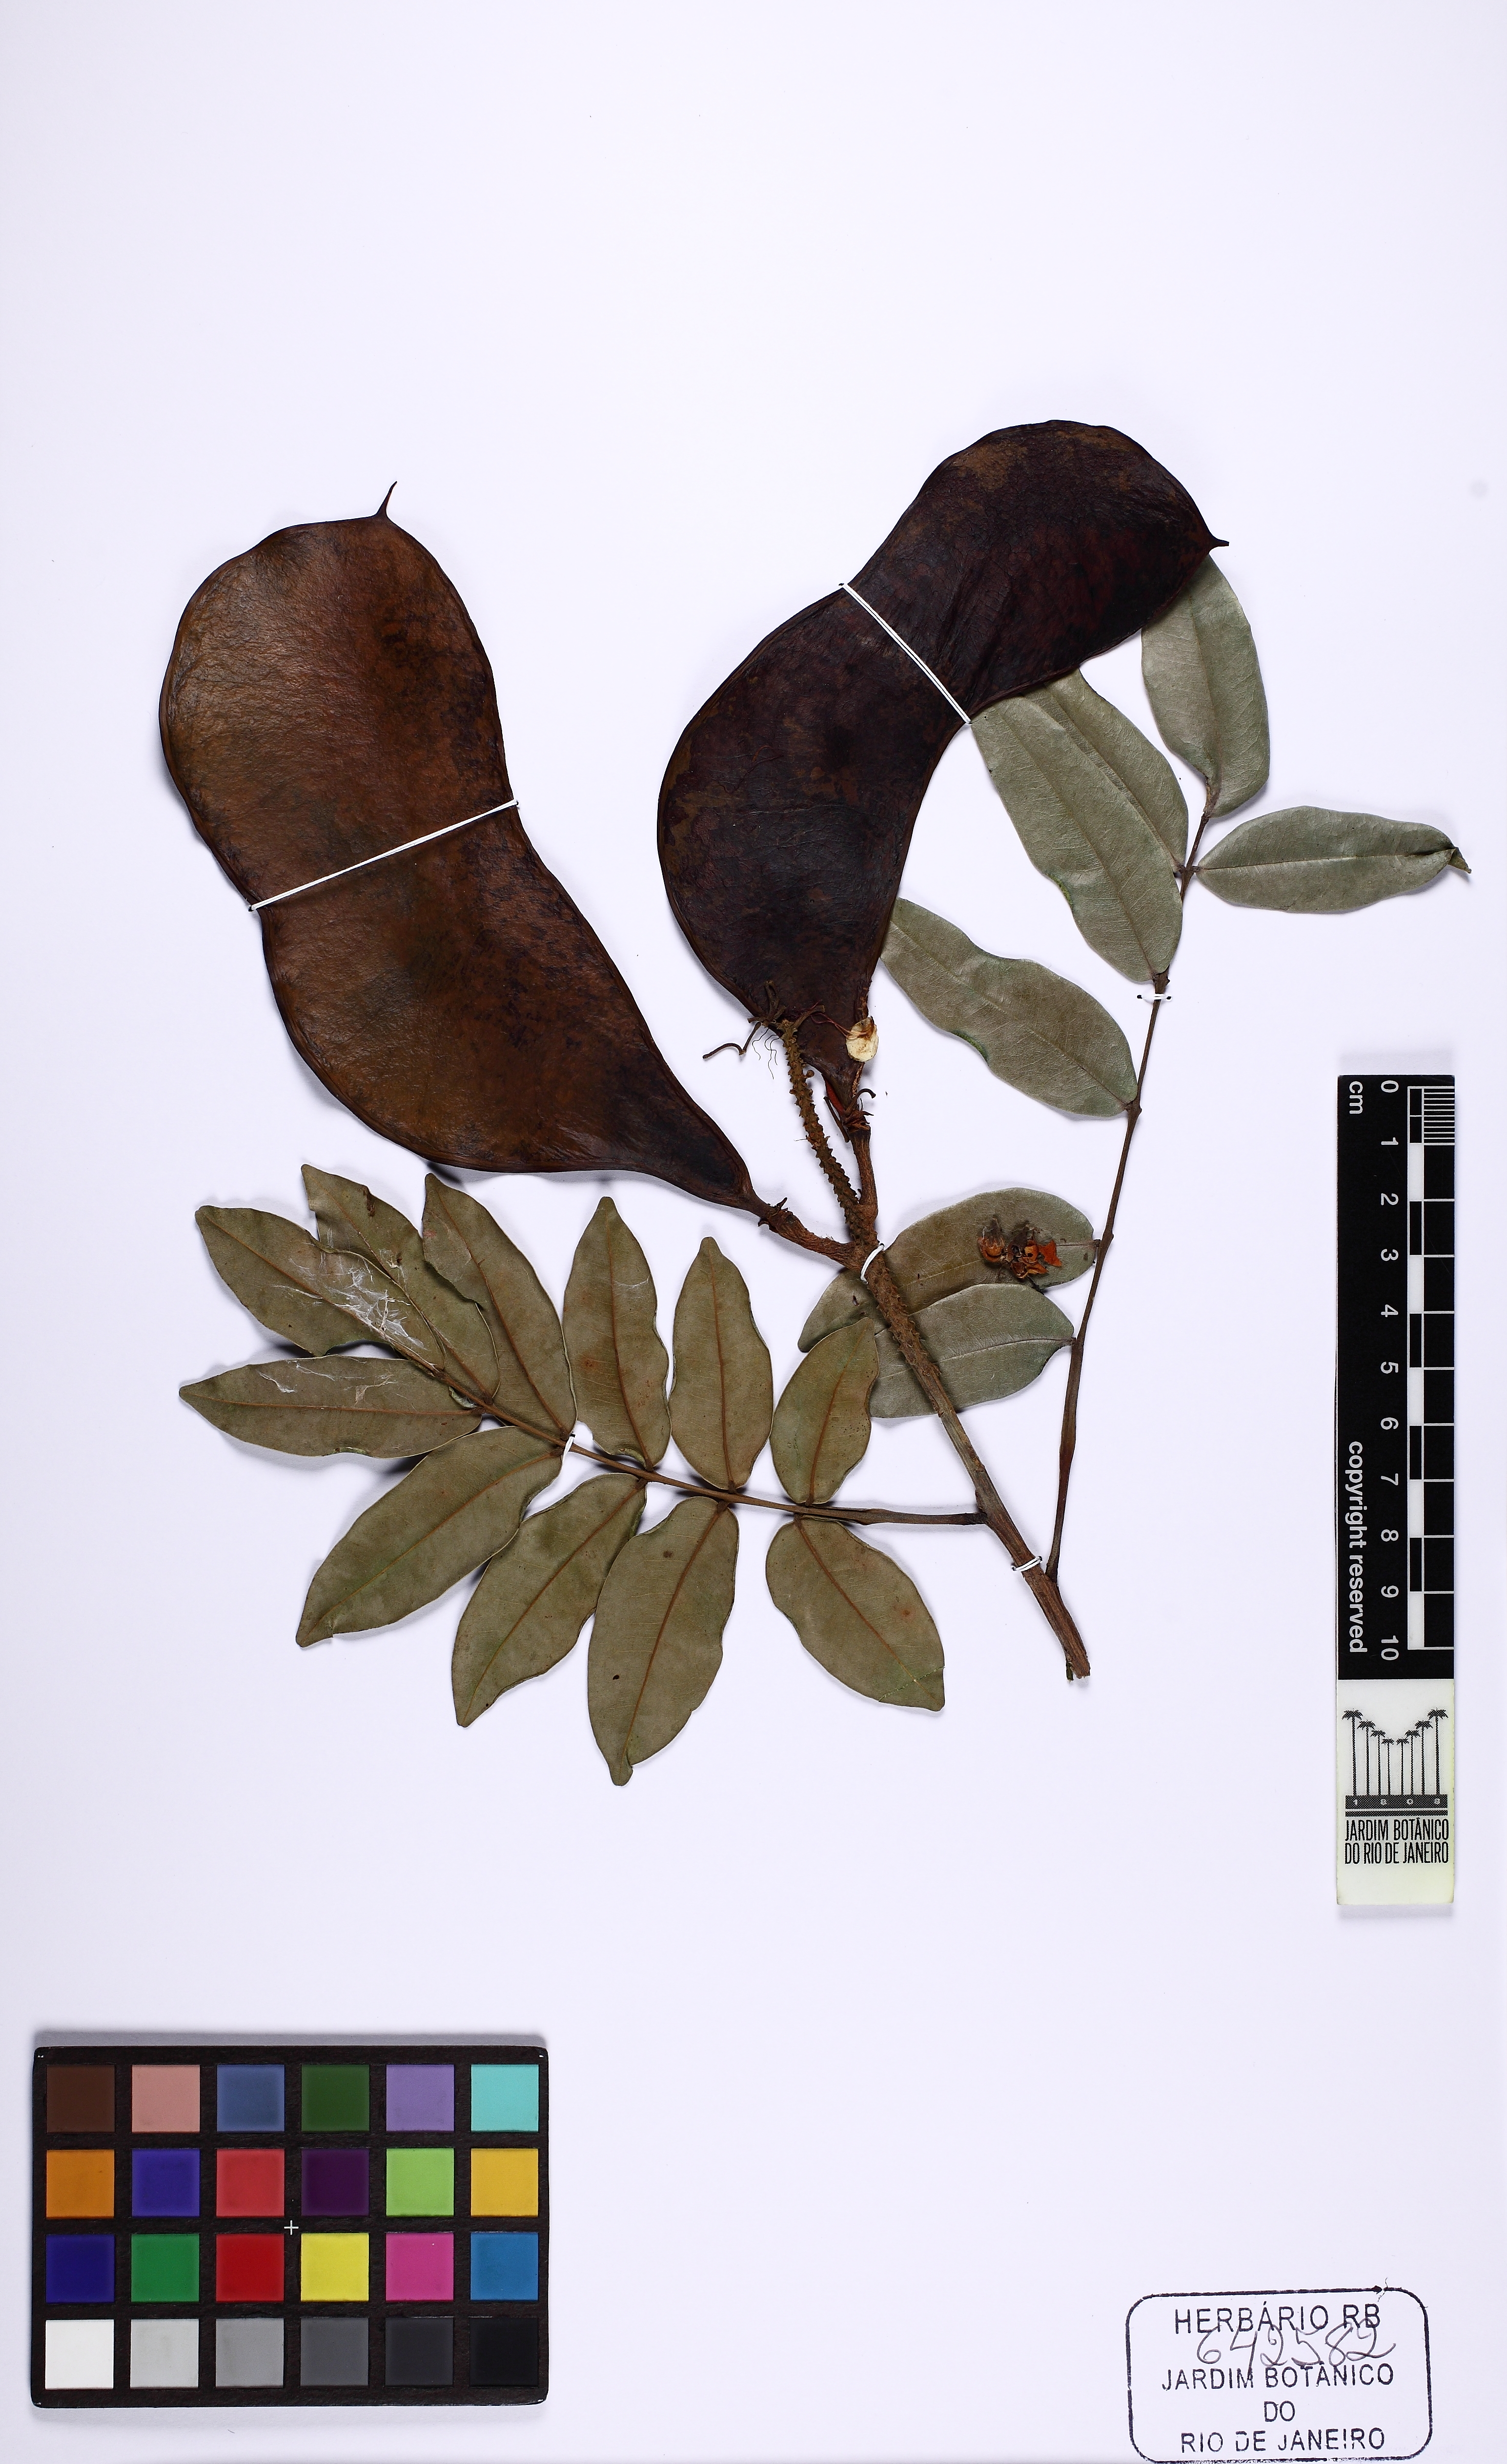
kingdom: Plantae
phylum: Tracheophyta
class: Magnoliopsida
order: Fabales
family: Fabaceae
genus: Campsiandra
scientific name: Campsiandra
